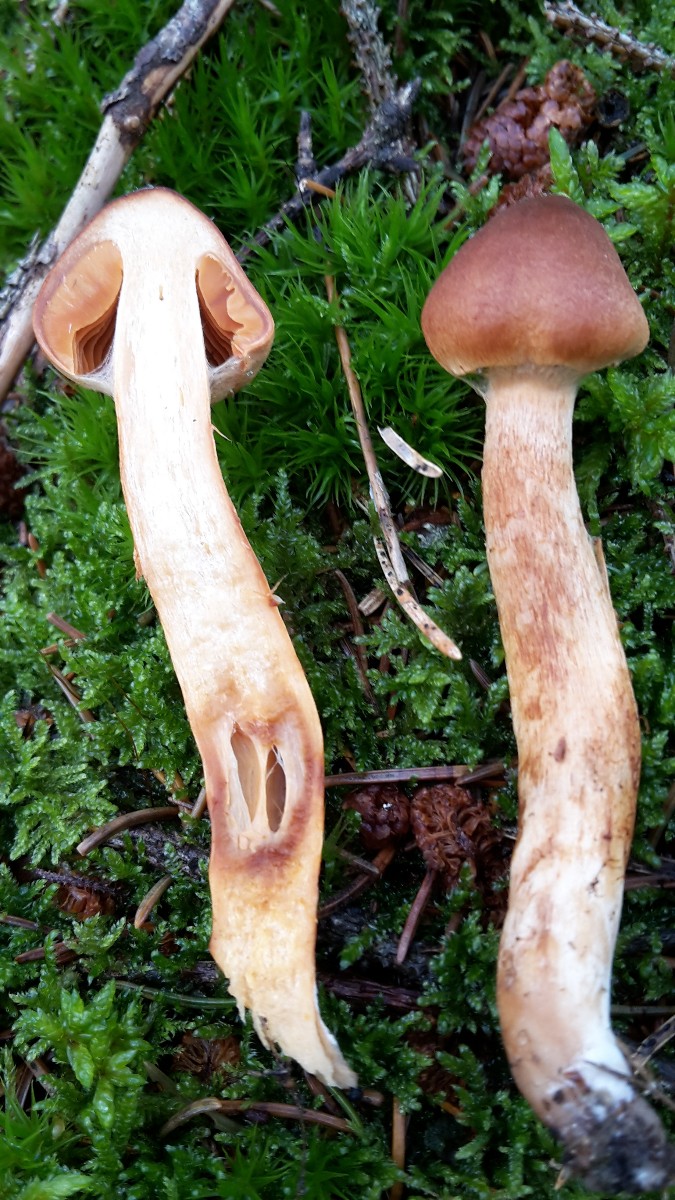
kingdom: Fungi
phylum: Basidiomycota
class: Agaricomycetes
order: Agaricales
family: Cortinariaceae
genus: Cortinarius
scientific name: Cortinarius rubellus
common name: puklet gift-slørhat
